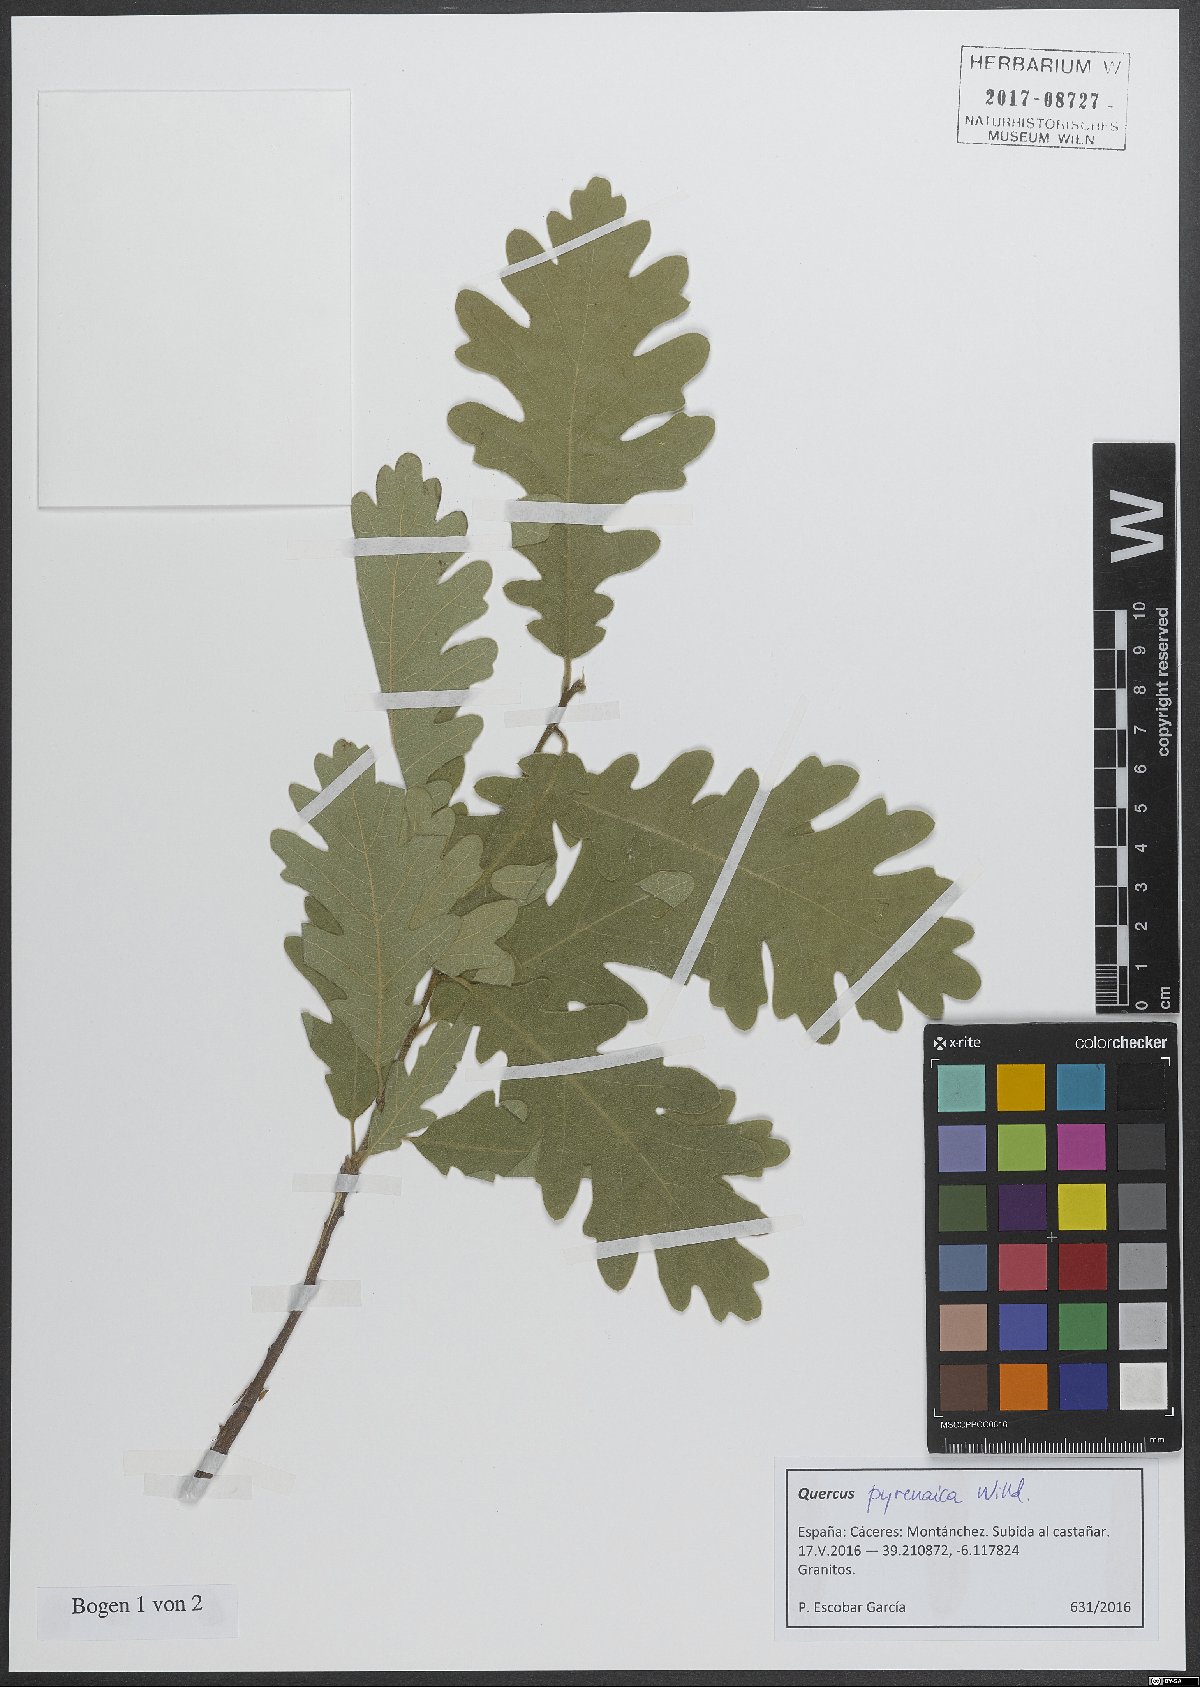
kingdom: Plantae
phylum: Tracheophyta
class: Magnoliopsida
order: Fagales
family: Fagaceae
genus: Quercus
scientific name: Quercus pyrenaica
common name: Pyrenean oak
